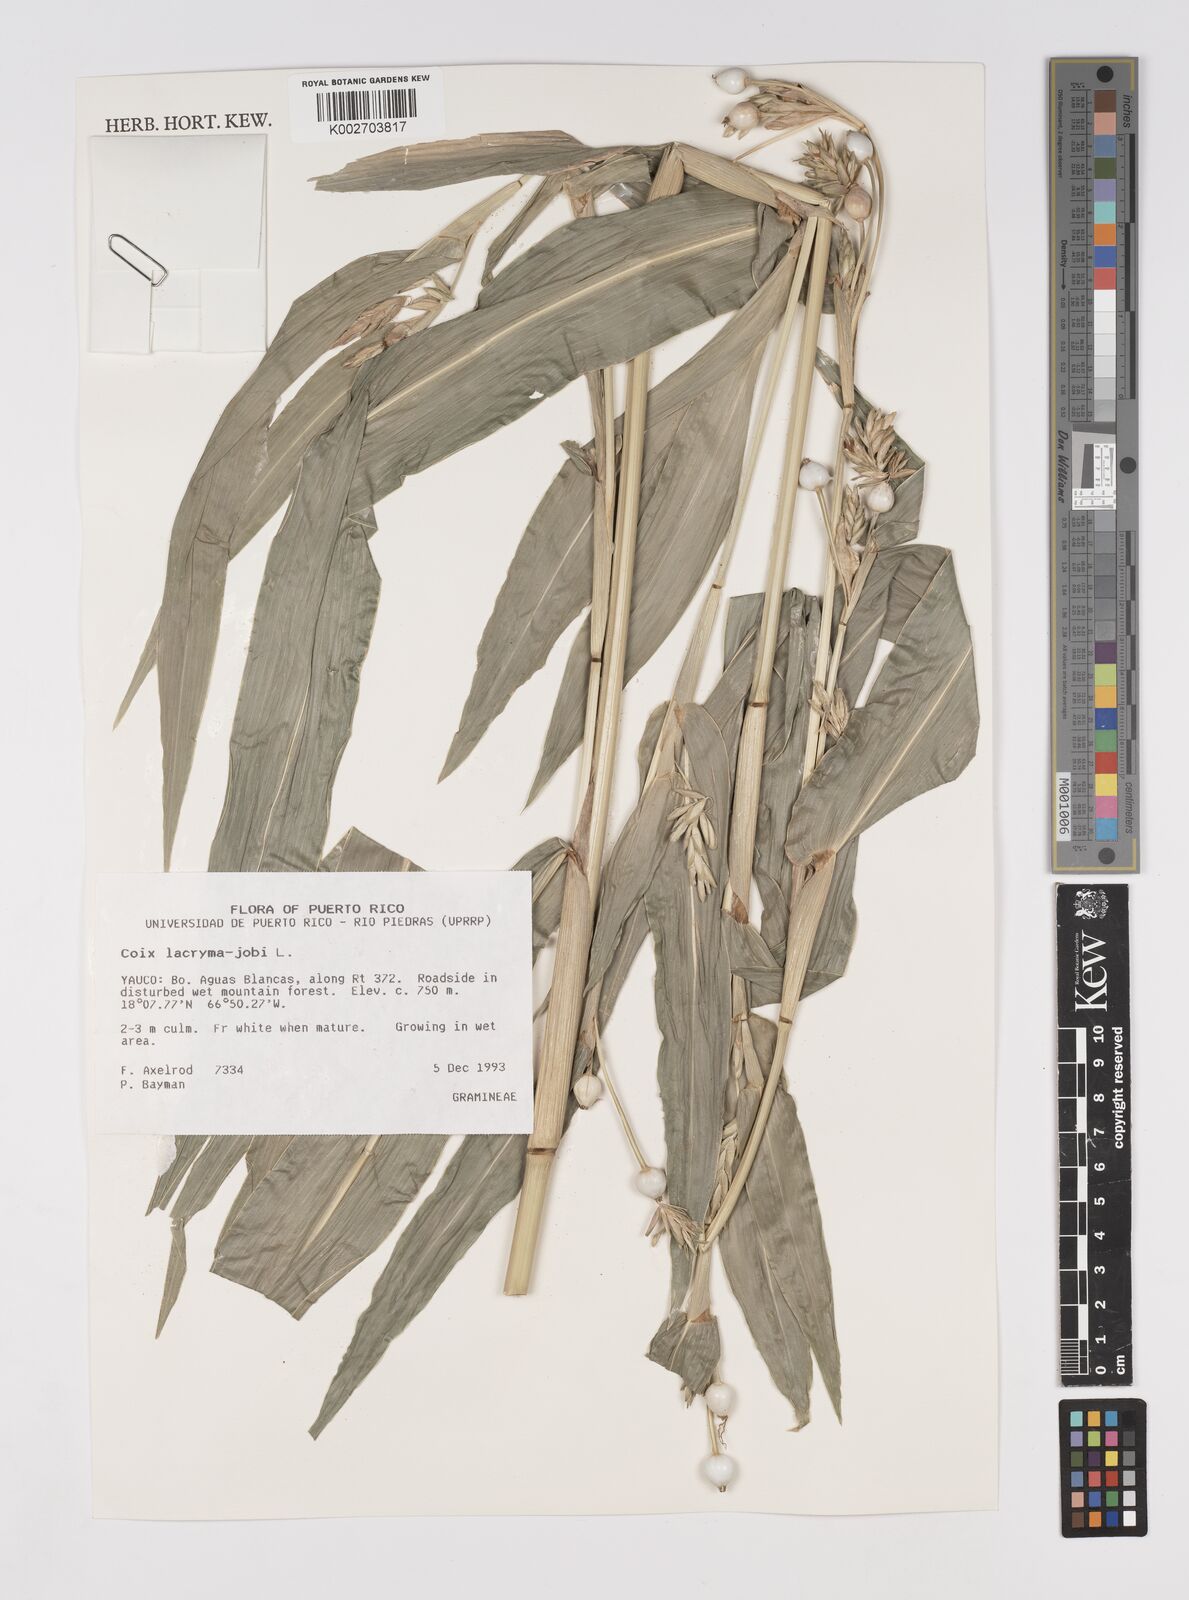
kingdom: Plantae
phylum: Tracheophyta
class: Liliopsida
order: Poales
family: Poaceae
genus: Coix
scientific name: Coix lacryma-jobi
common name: Job's tears
